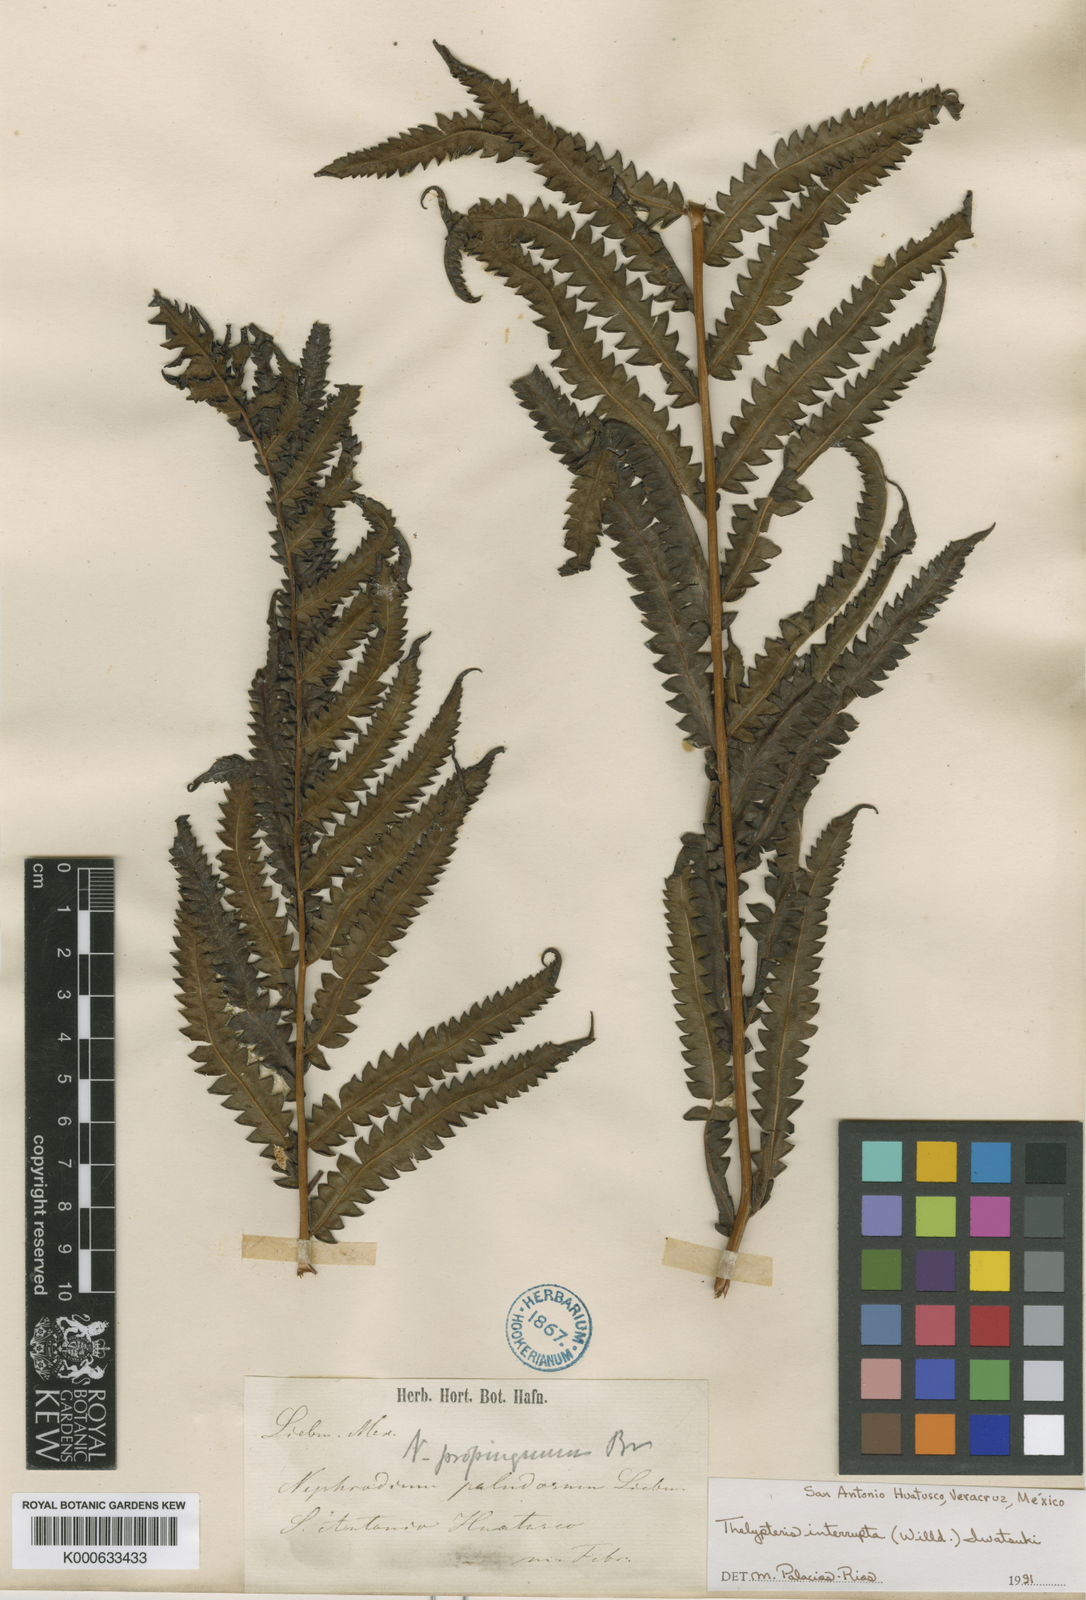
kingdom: Plantae
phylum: Tracheophyta
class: Polypodiopsida
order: Polypodiales
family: Thelypteridaceae
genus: Cyclosorus
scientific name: Cyclosorus interruptus
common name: Neke fern
